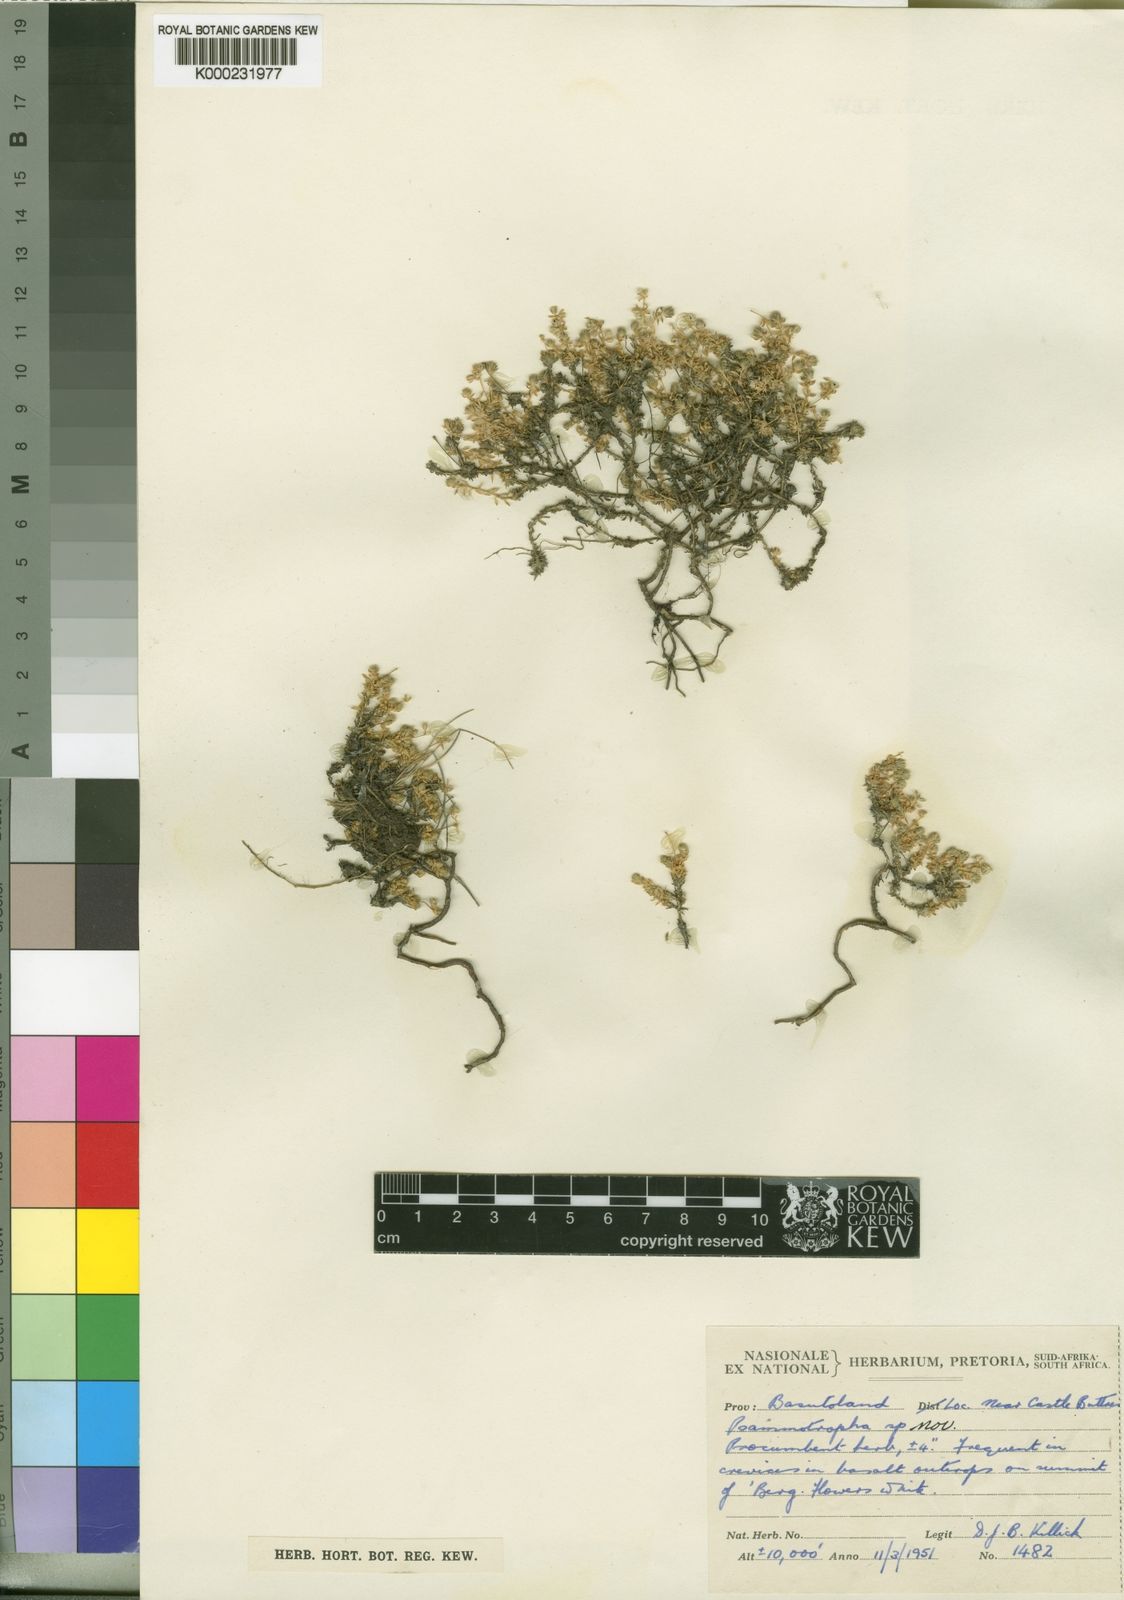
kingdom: Plantae
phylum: Tracheophyta
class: Magnoliopsida
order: Caryophyllales
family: Molluginaceae
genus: Psammotropha
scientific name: Psammotropha alternifolia
